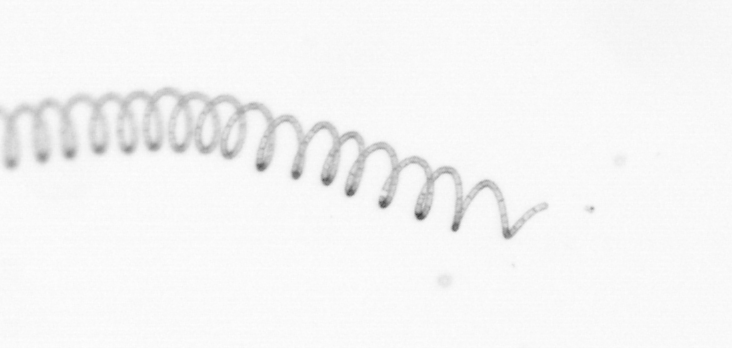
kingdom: Chromista
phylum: Ochrophyta
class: Bacillariophyceae
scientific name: Bacillariophyceae
